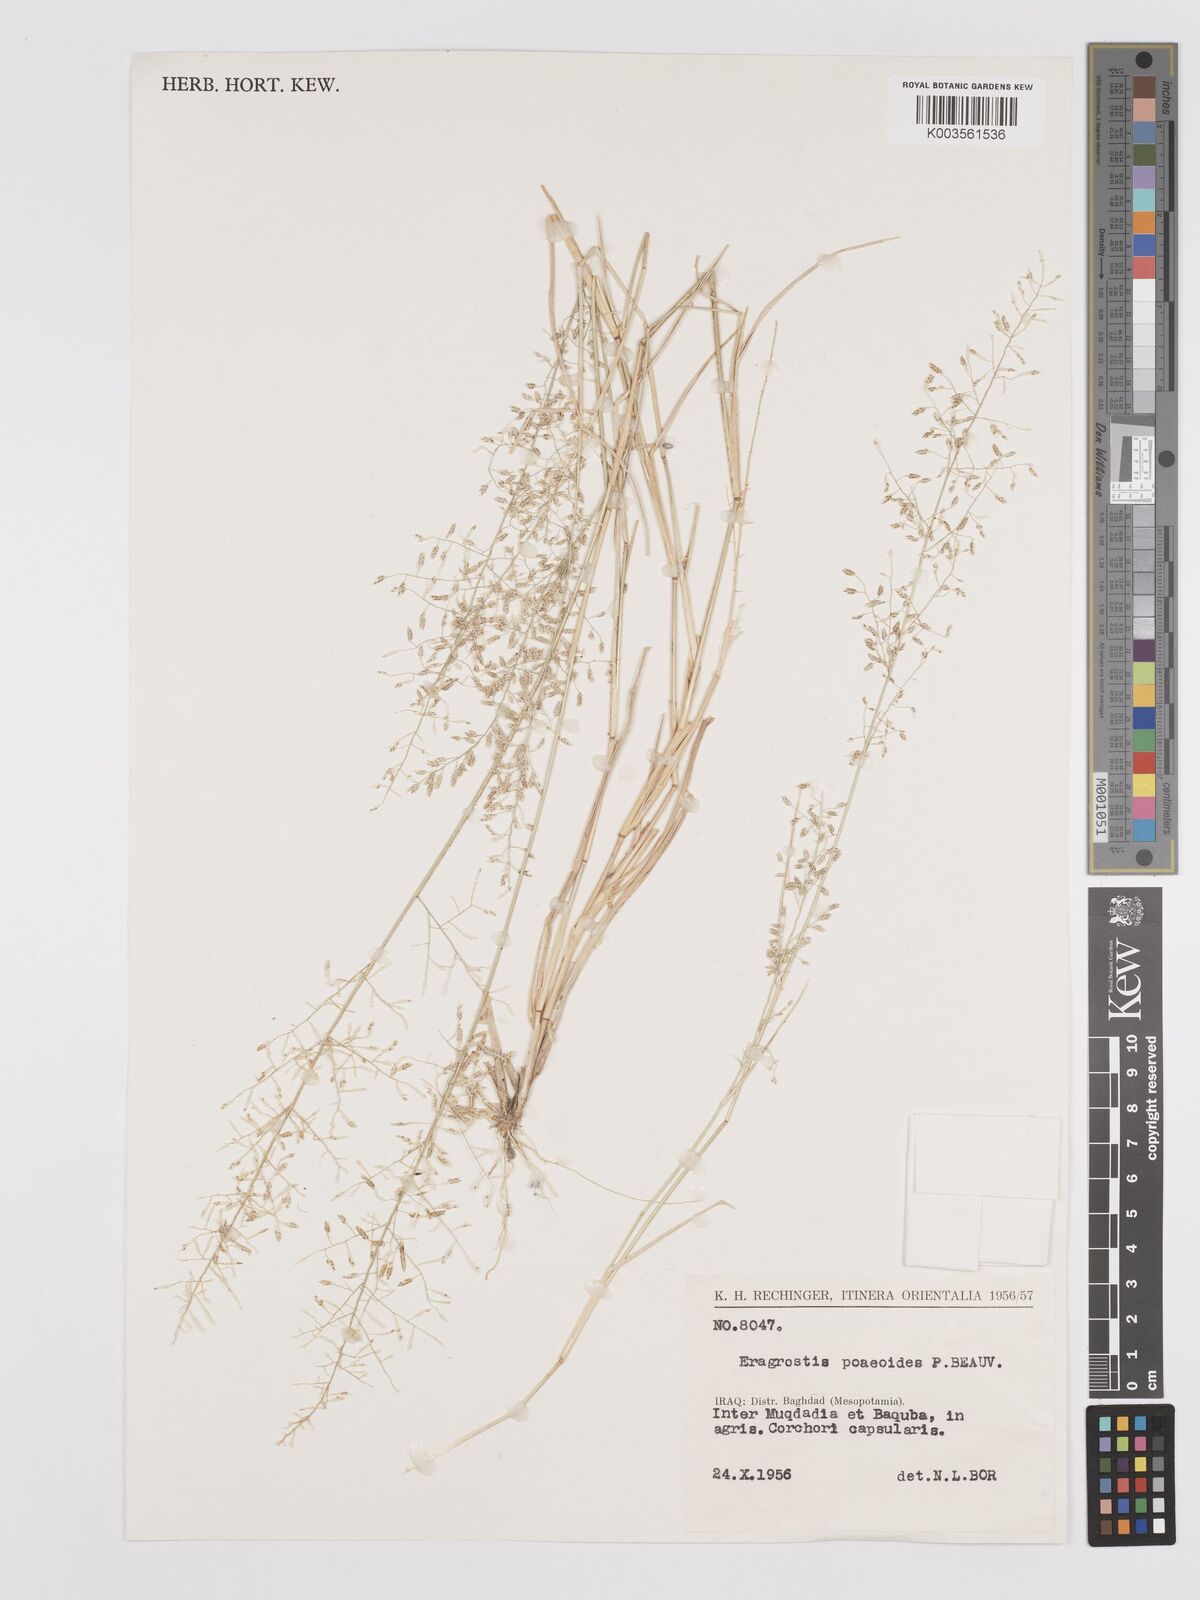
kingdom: Plantae
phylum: Tracheophyta
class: Liliopsida
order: Poales
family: Poaceae
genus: Eragrostis
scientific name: Eragrostis minor
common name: Small love-grass
